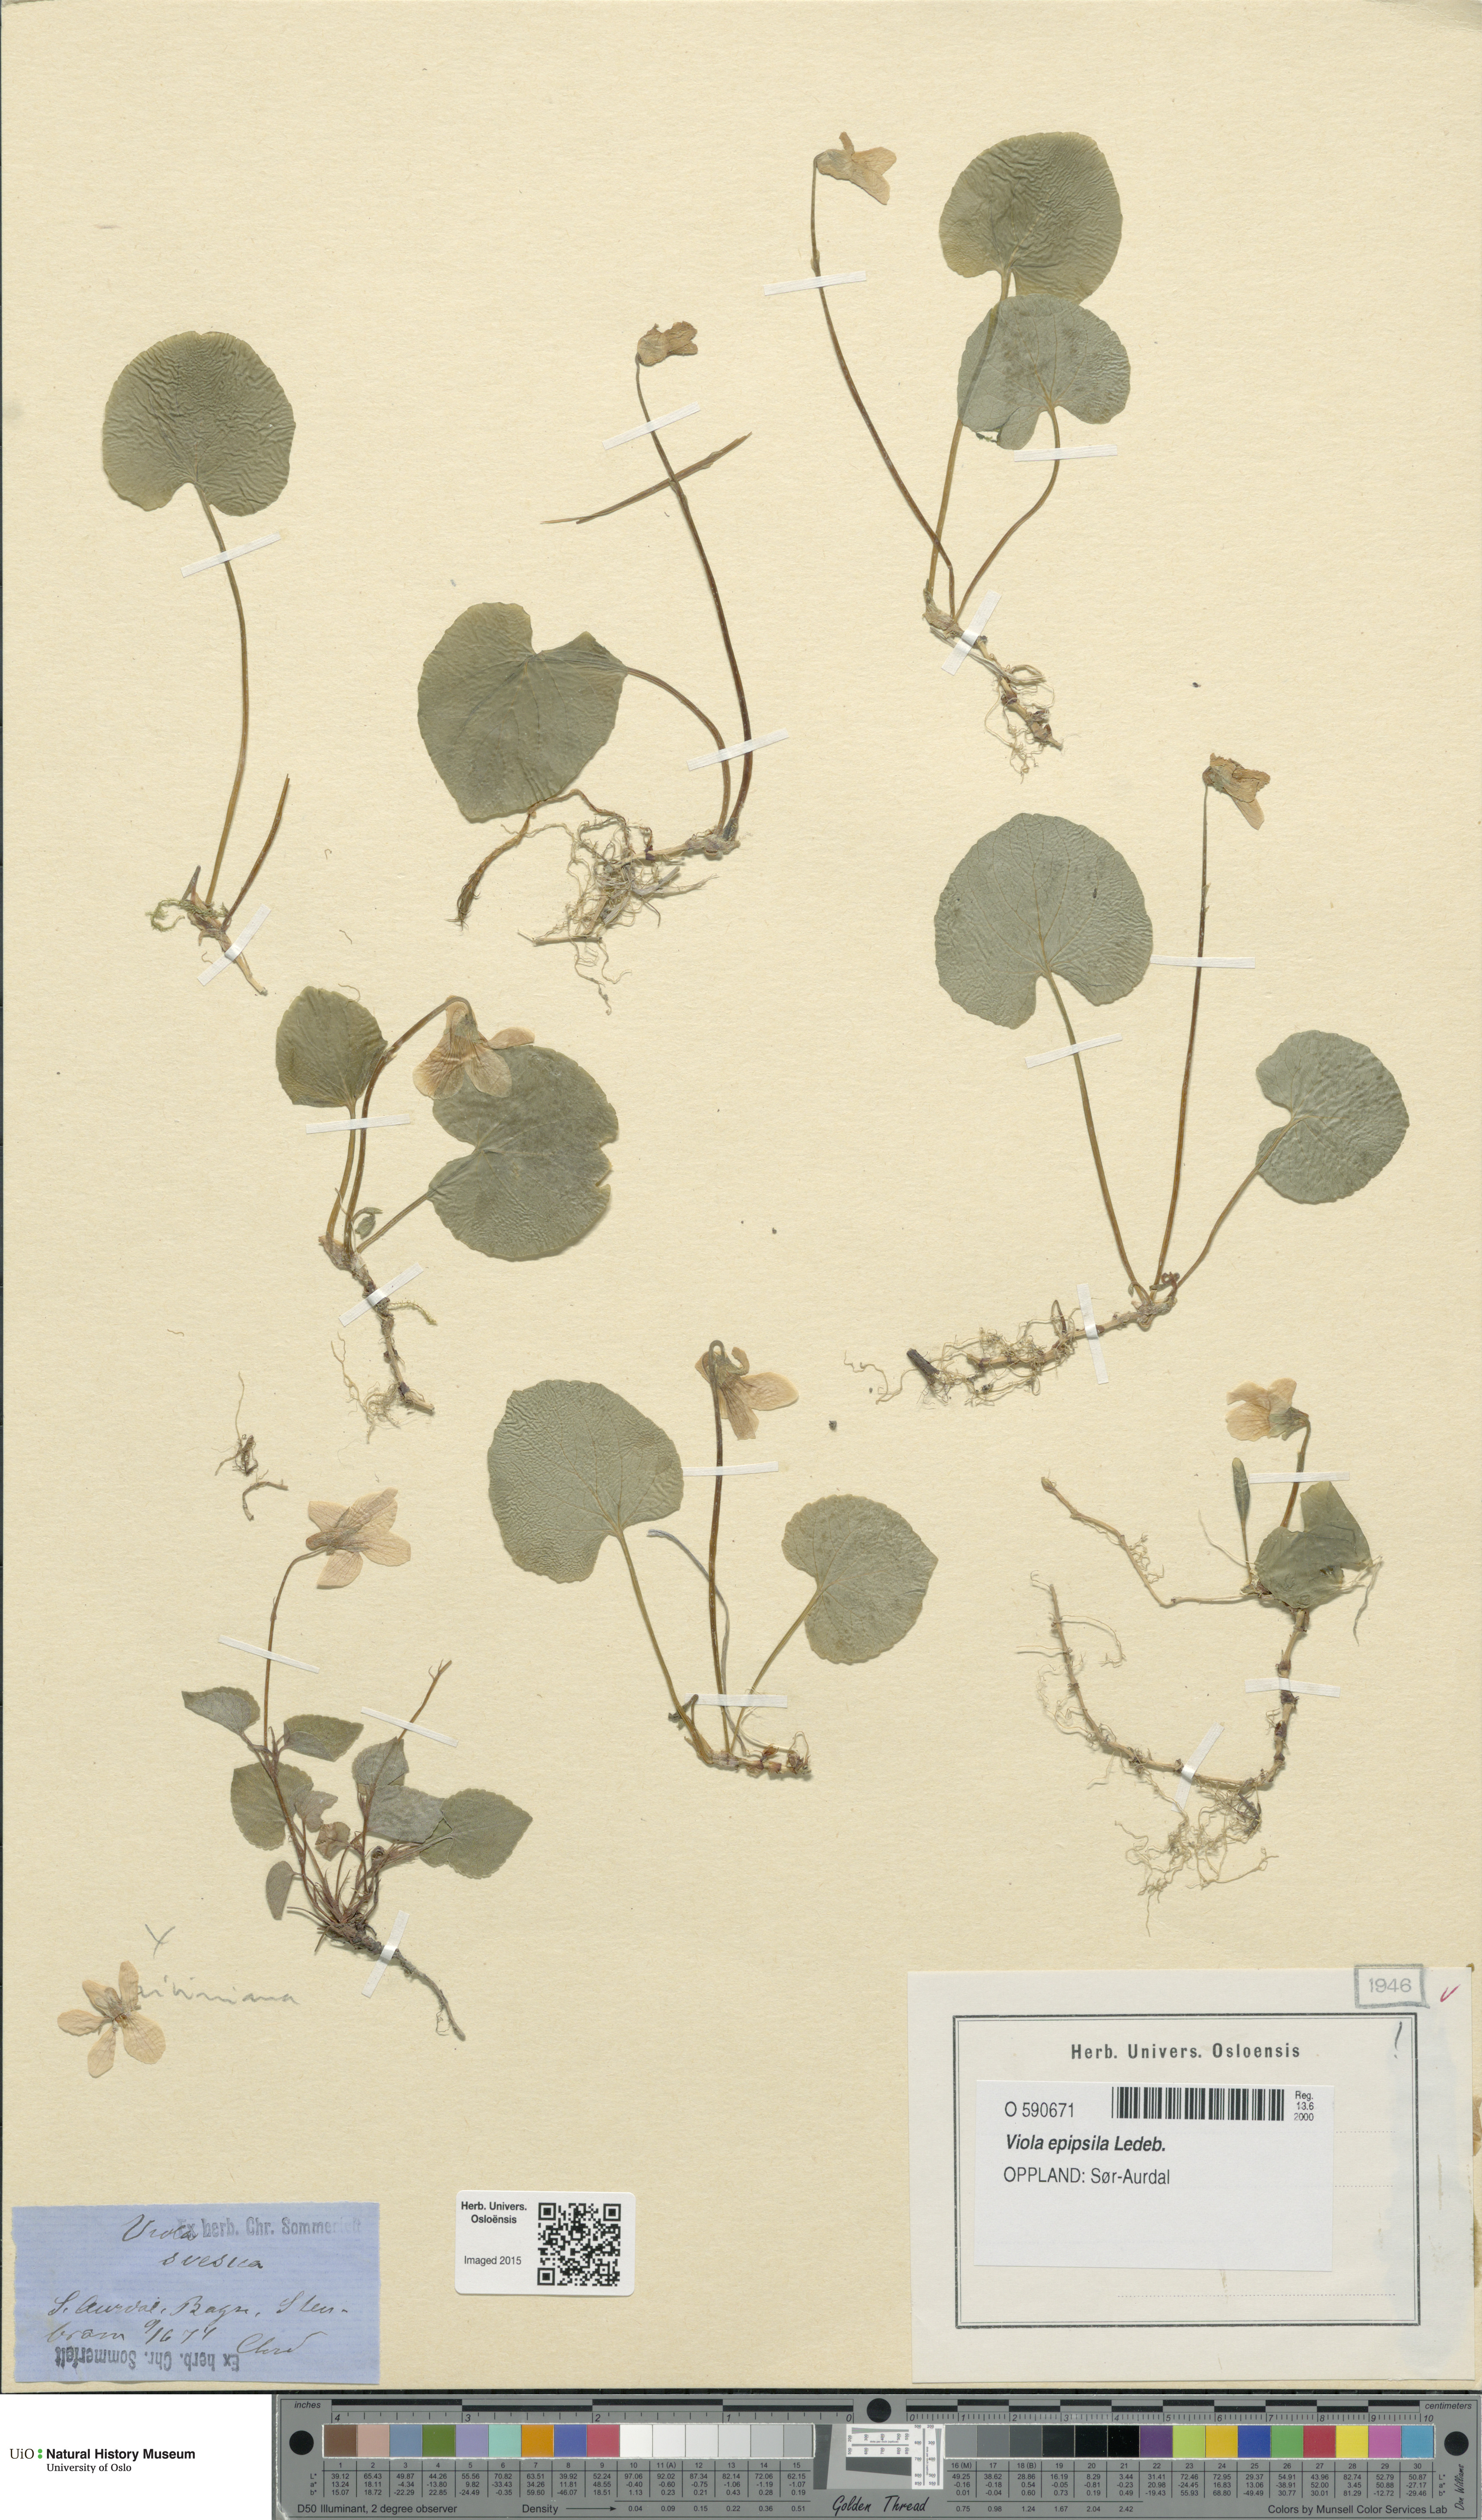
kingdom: Plantae
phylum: Tracheophyta
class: Magnoliopsida
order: Malpighiales
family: Violaceae
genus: Viola
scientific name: Viola epipsila
